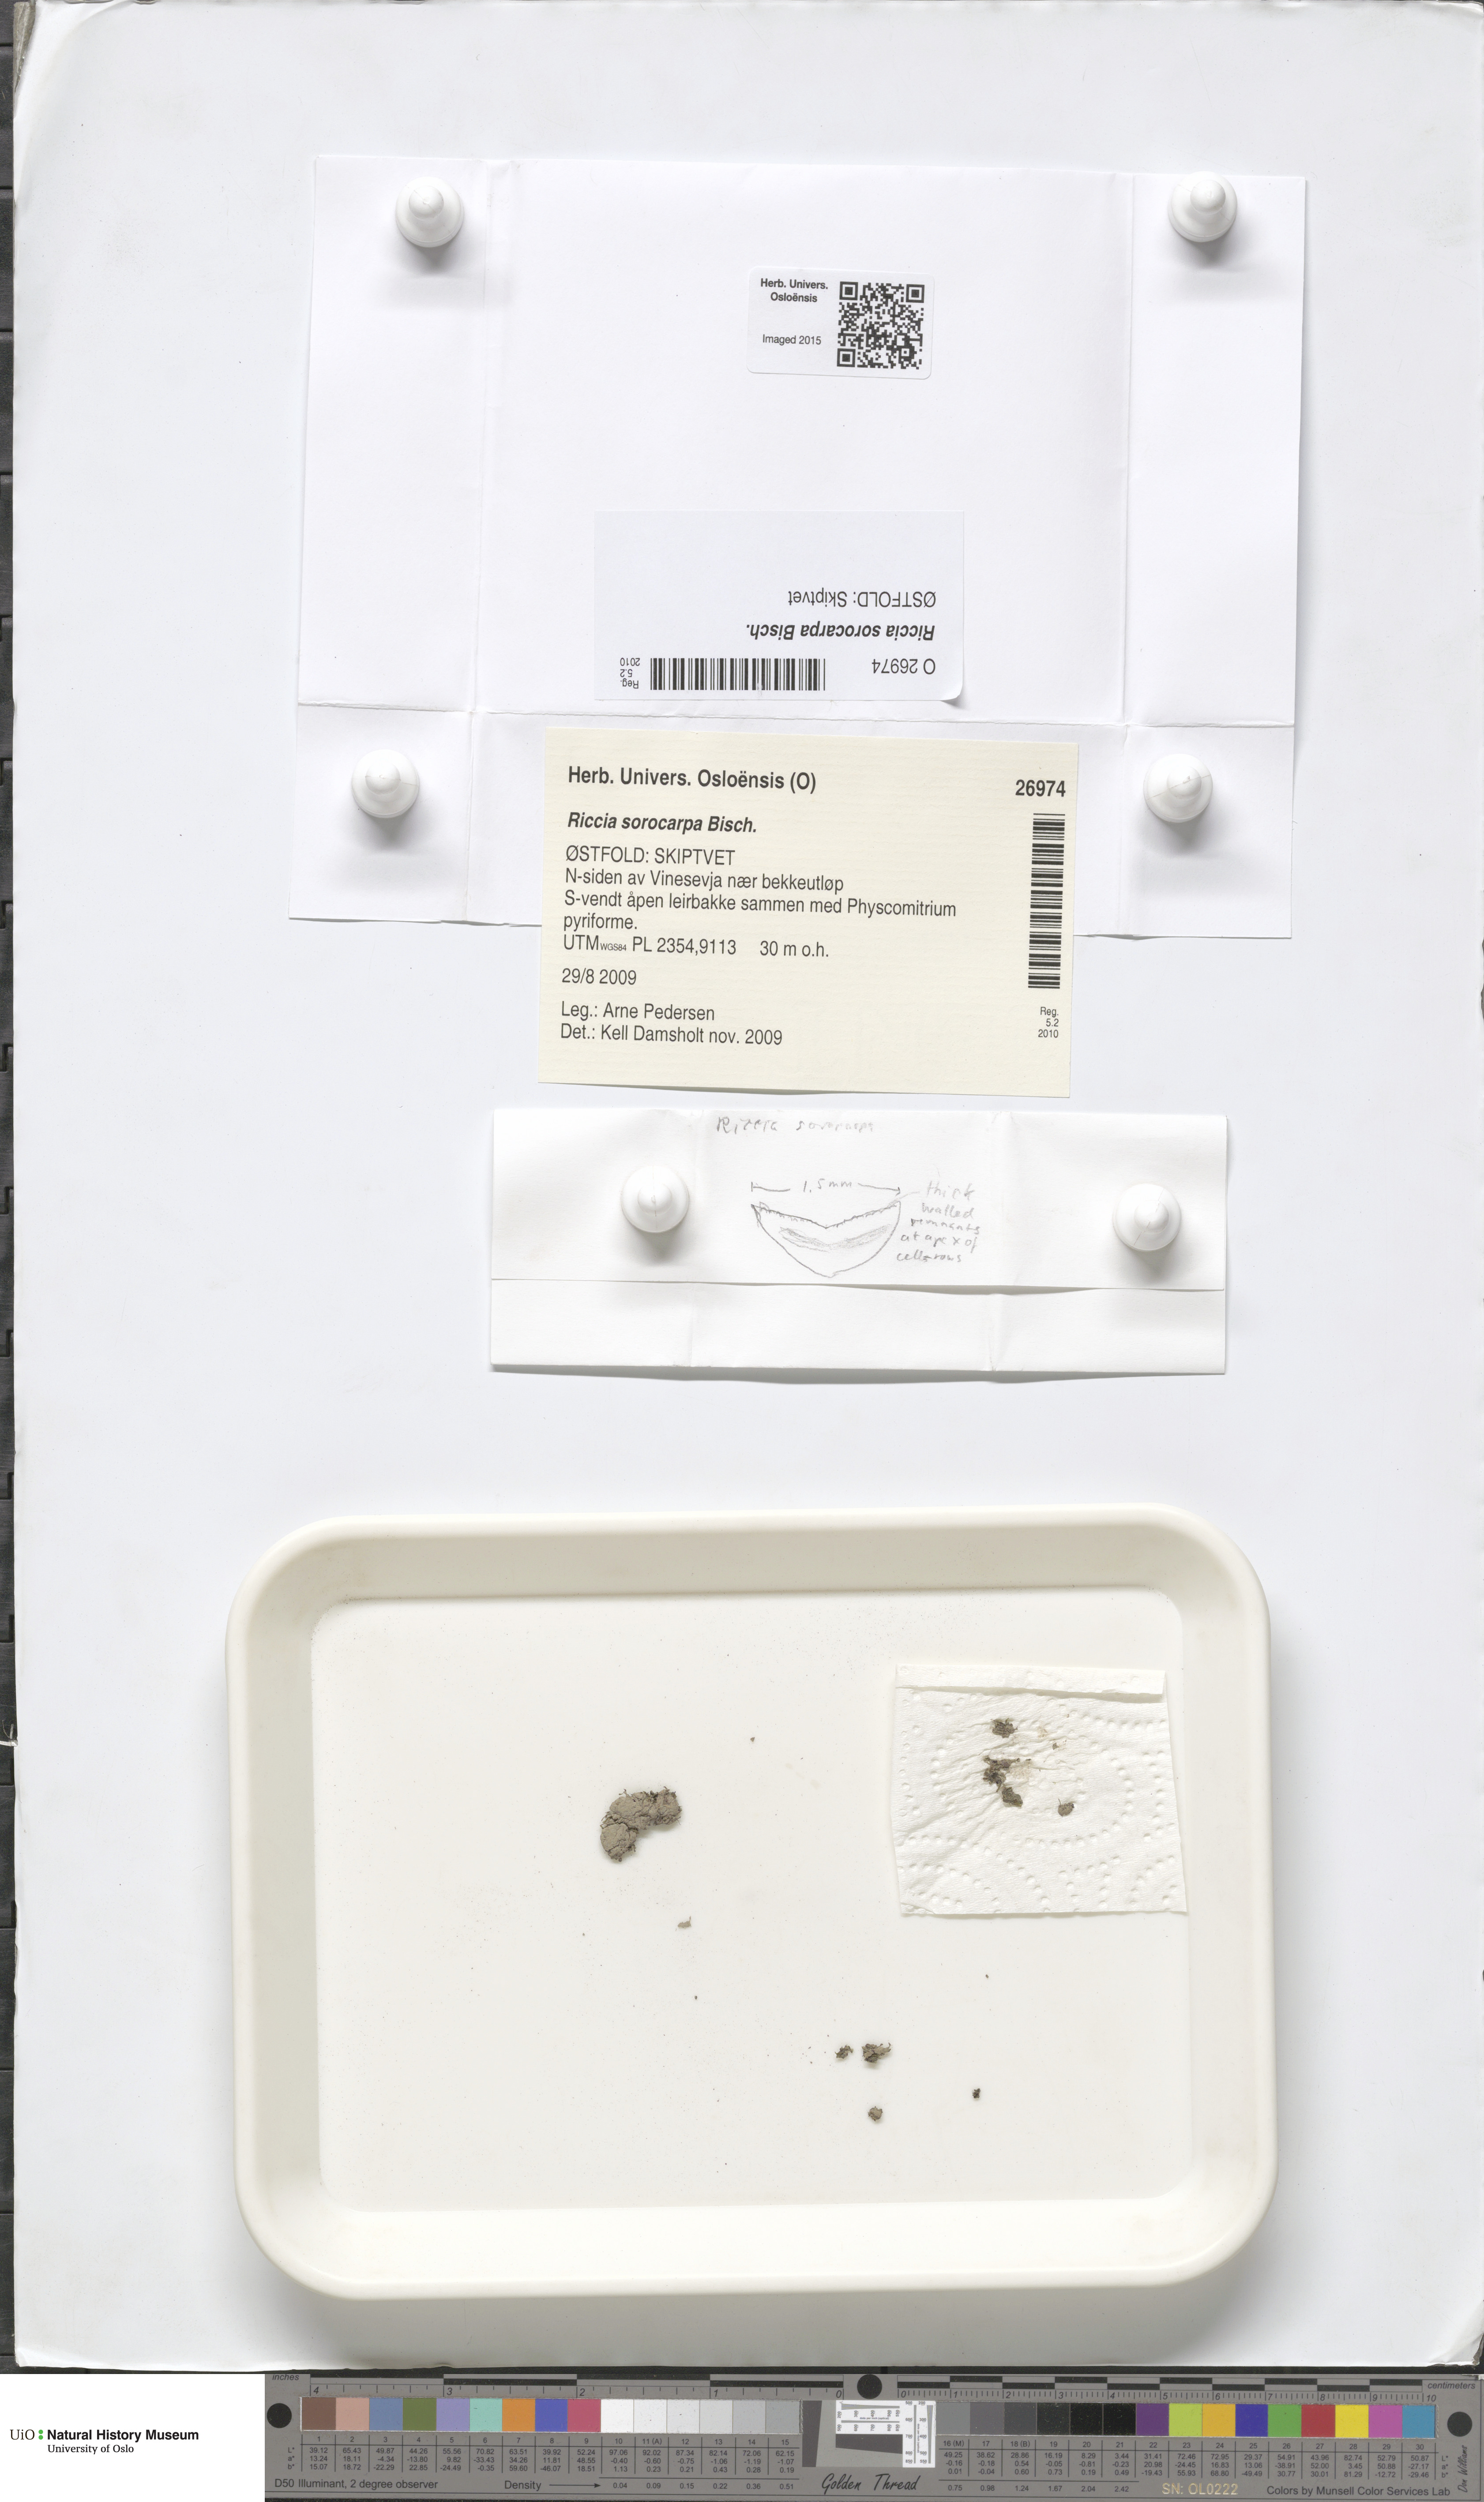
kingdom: Plantae
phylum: Marchantiophyta
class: Marchantiopsida
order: Marchantiales
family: Ricciaceae
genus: Riccia
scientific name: Riccia sorocarpa
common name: Common crystalwort
